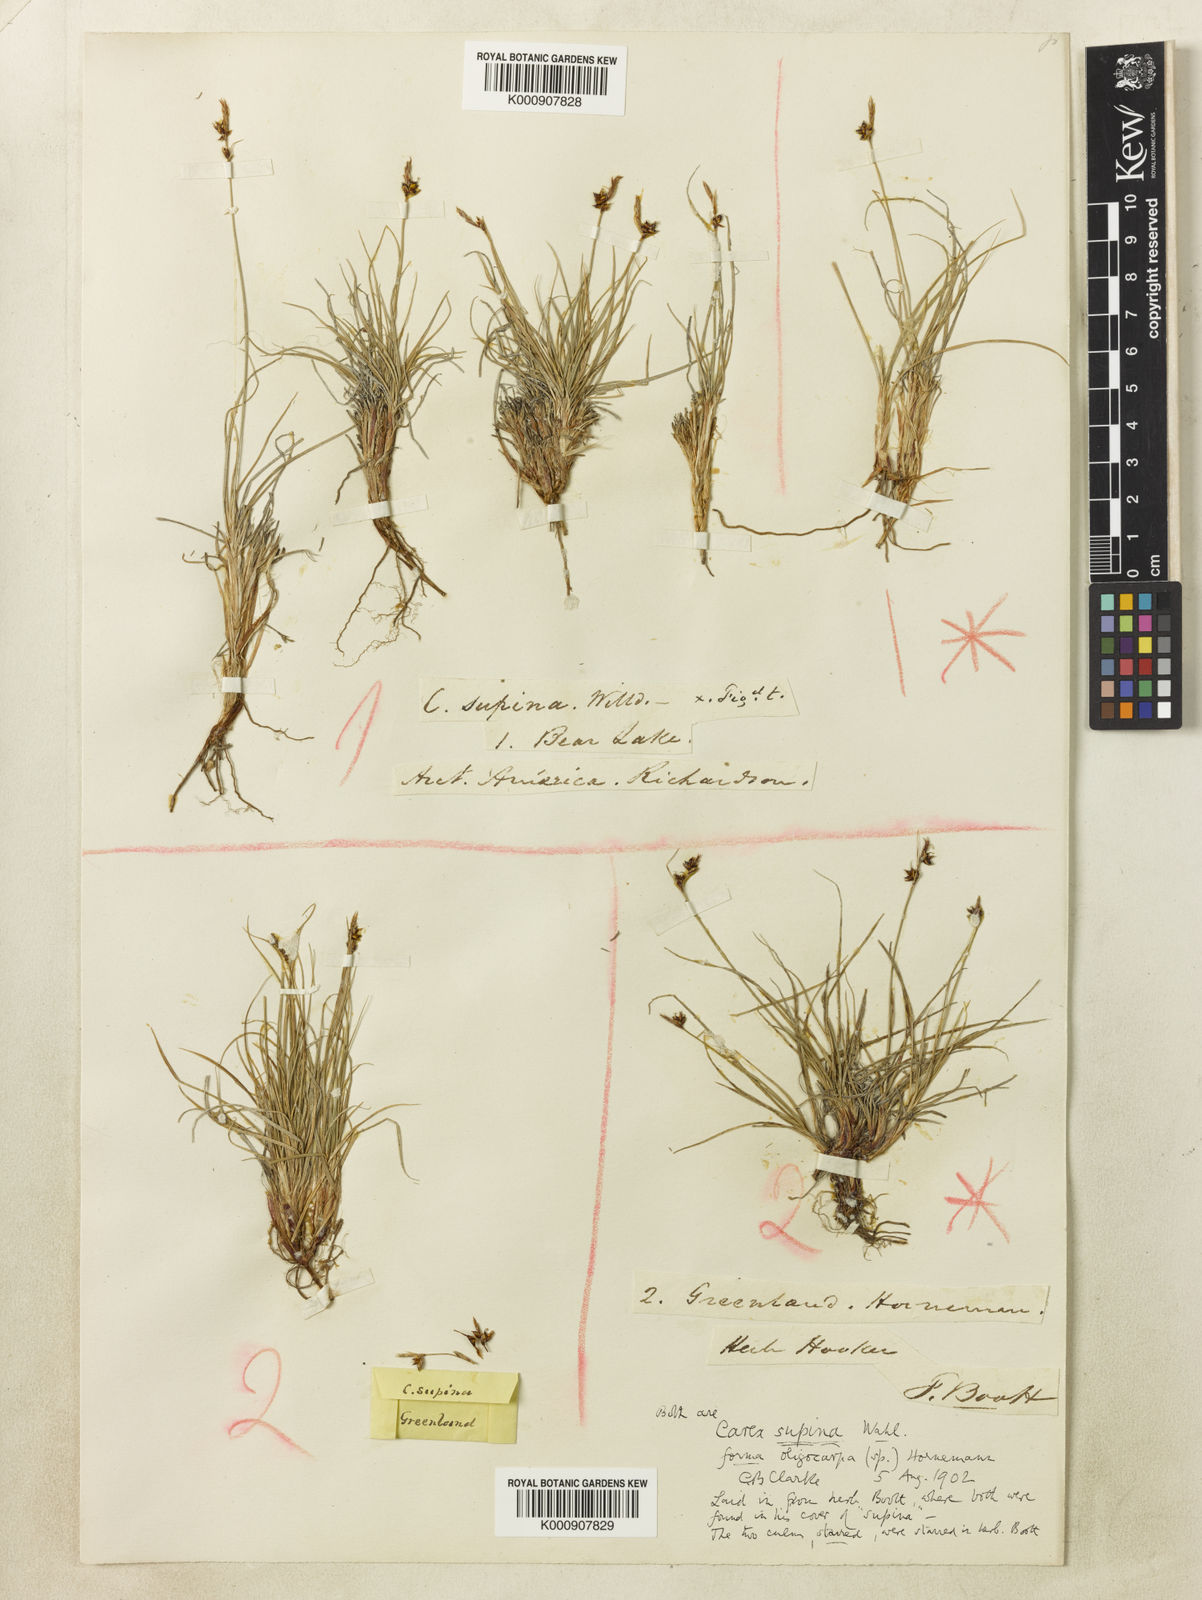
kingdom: Plantae
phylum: Tracheophyta
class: Liliopsida
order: Poales
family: Cyperaceae
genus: Carex
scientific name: Carex supina
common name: Lying-back sedge
